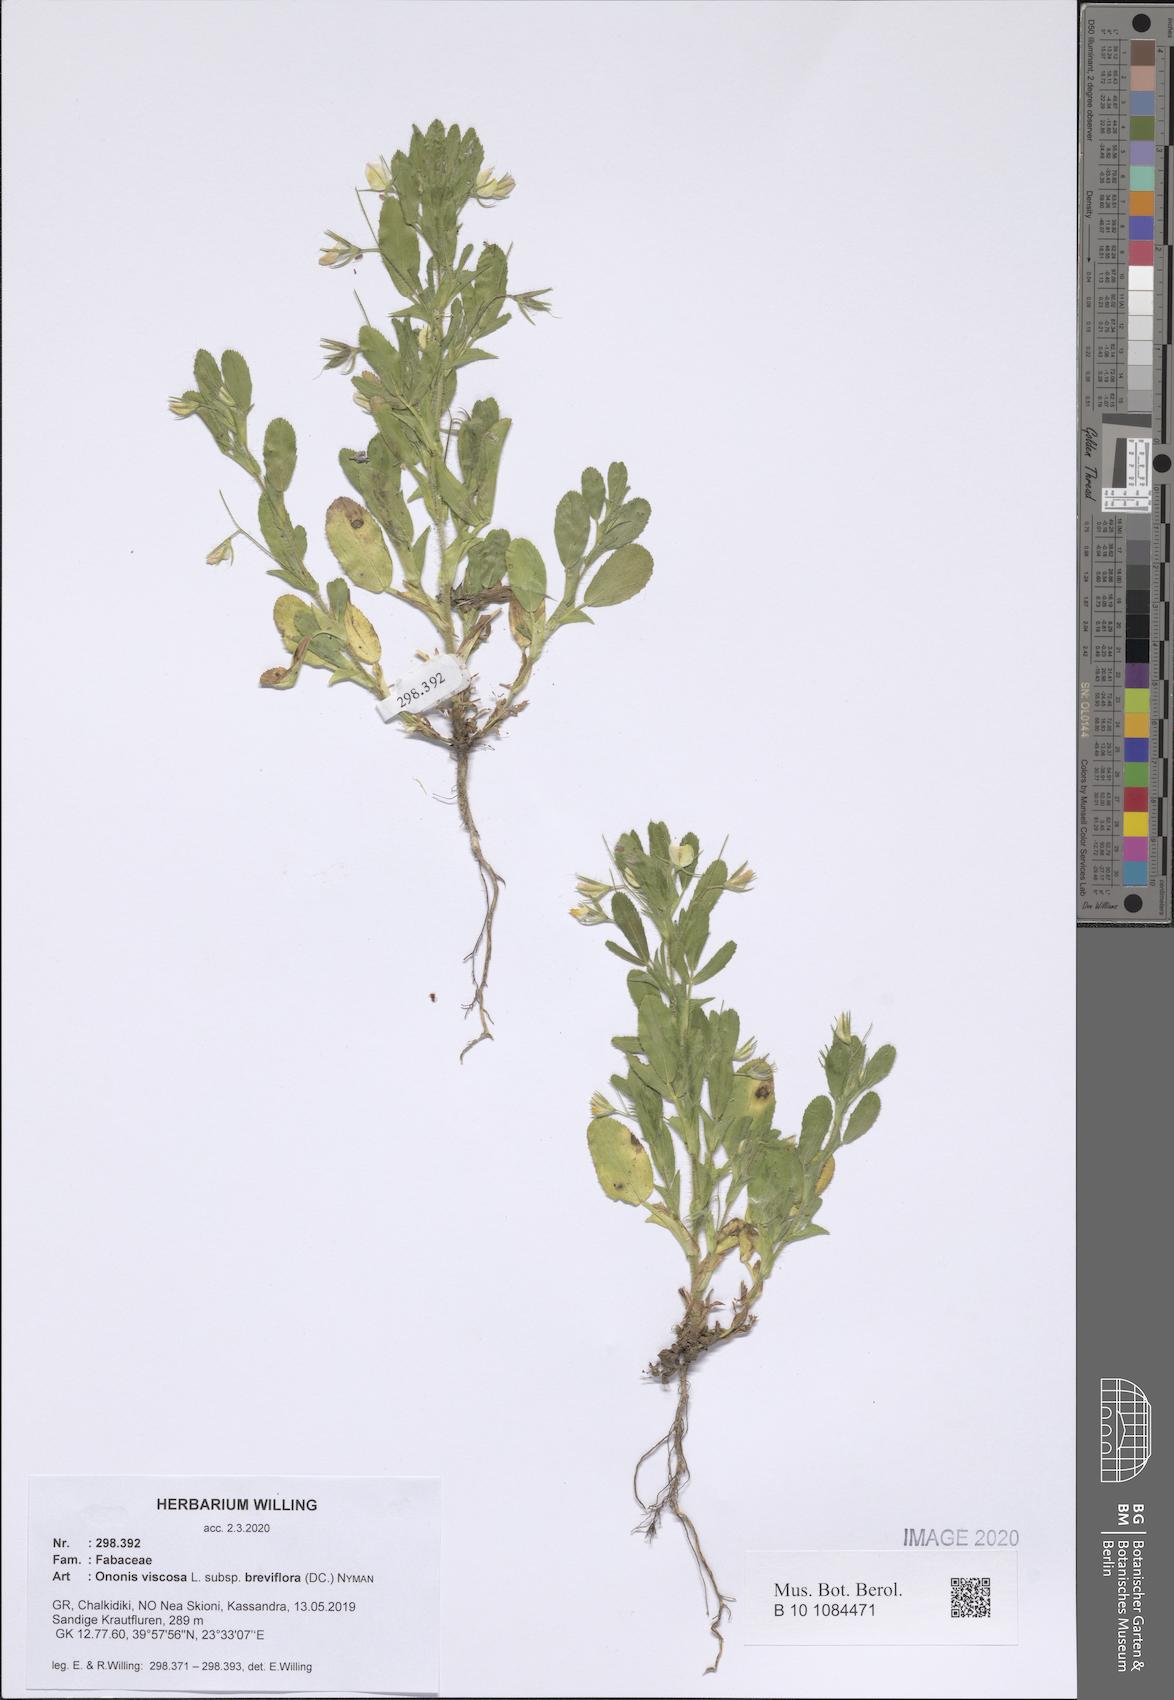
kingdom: Plantae
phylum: Tracheophyta
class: Magnoliopsida
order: Fabales
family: Fabaceae
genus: Ononis
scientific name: Ononis viscosa
